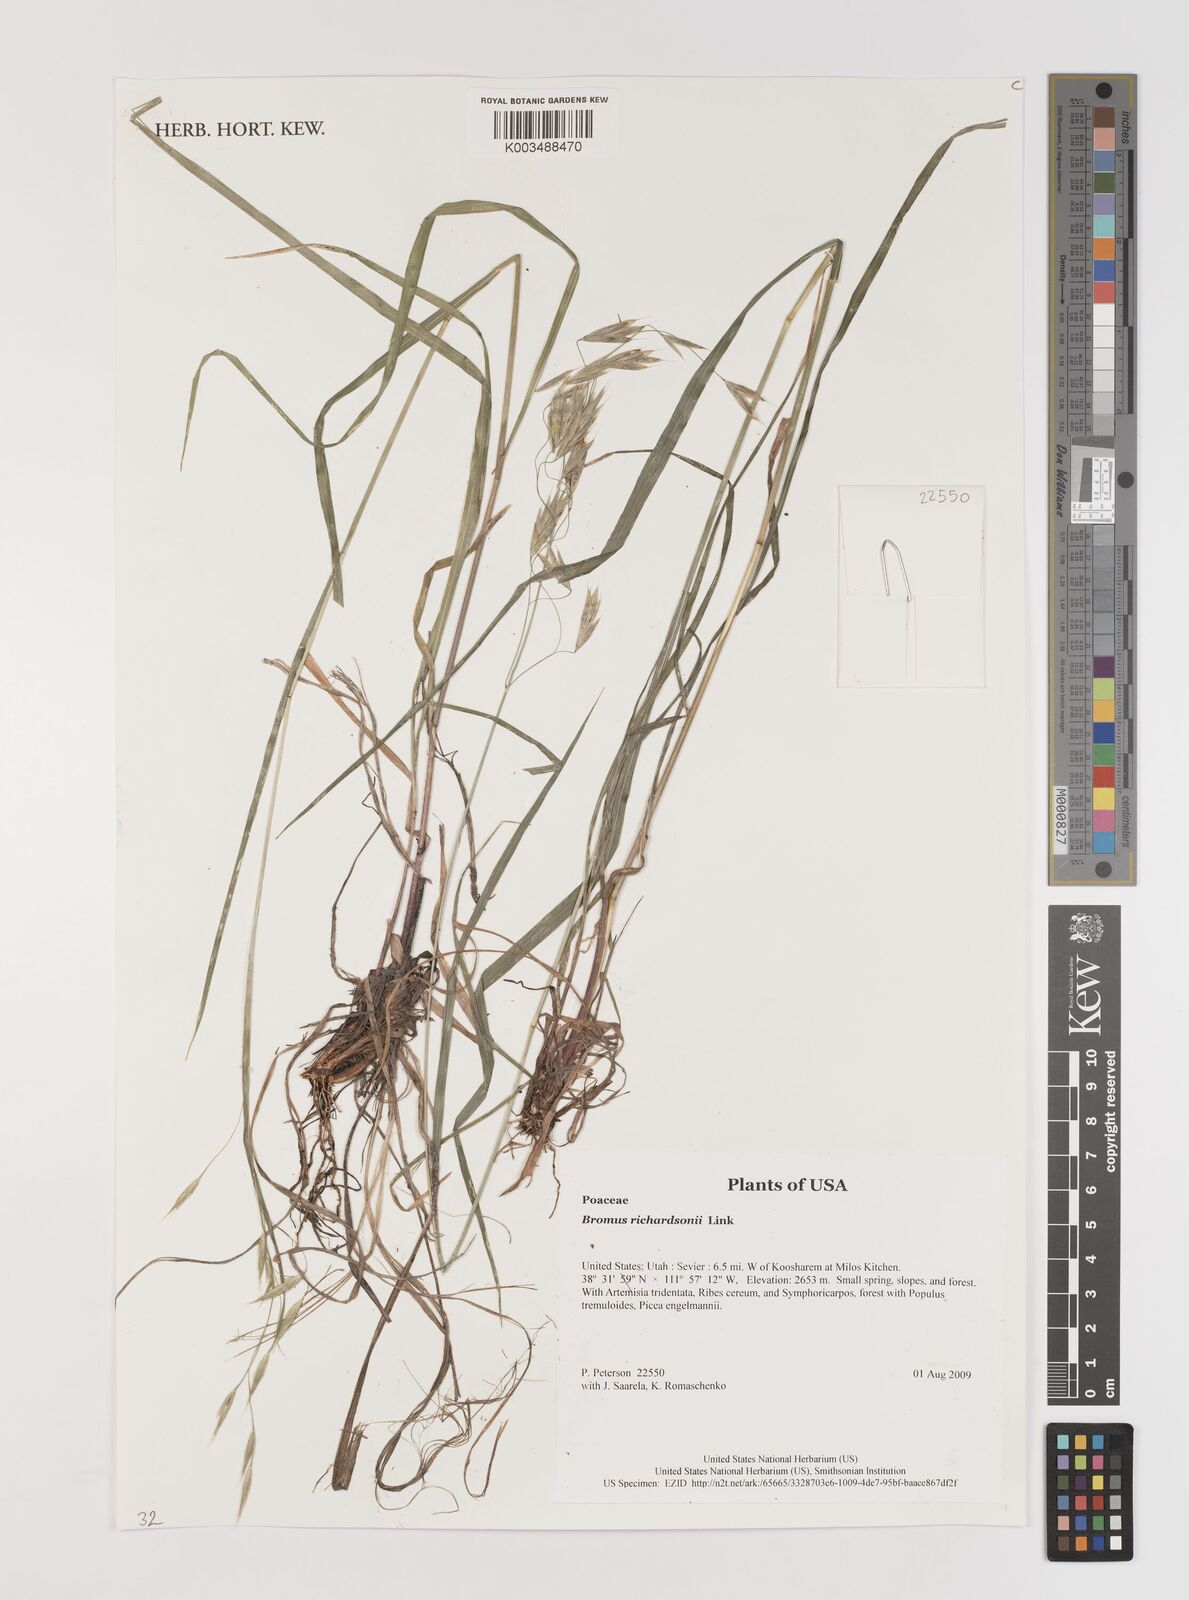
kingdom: Plantae
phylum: Tracheophyta
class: Liliopsida
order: Poales
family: Poaceae
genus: Bromus
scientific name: Bromus richardsonii
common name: Richardson's brome
